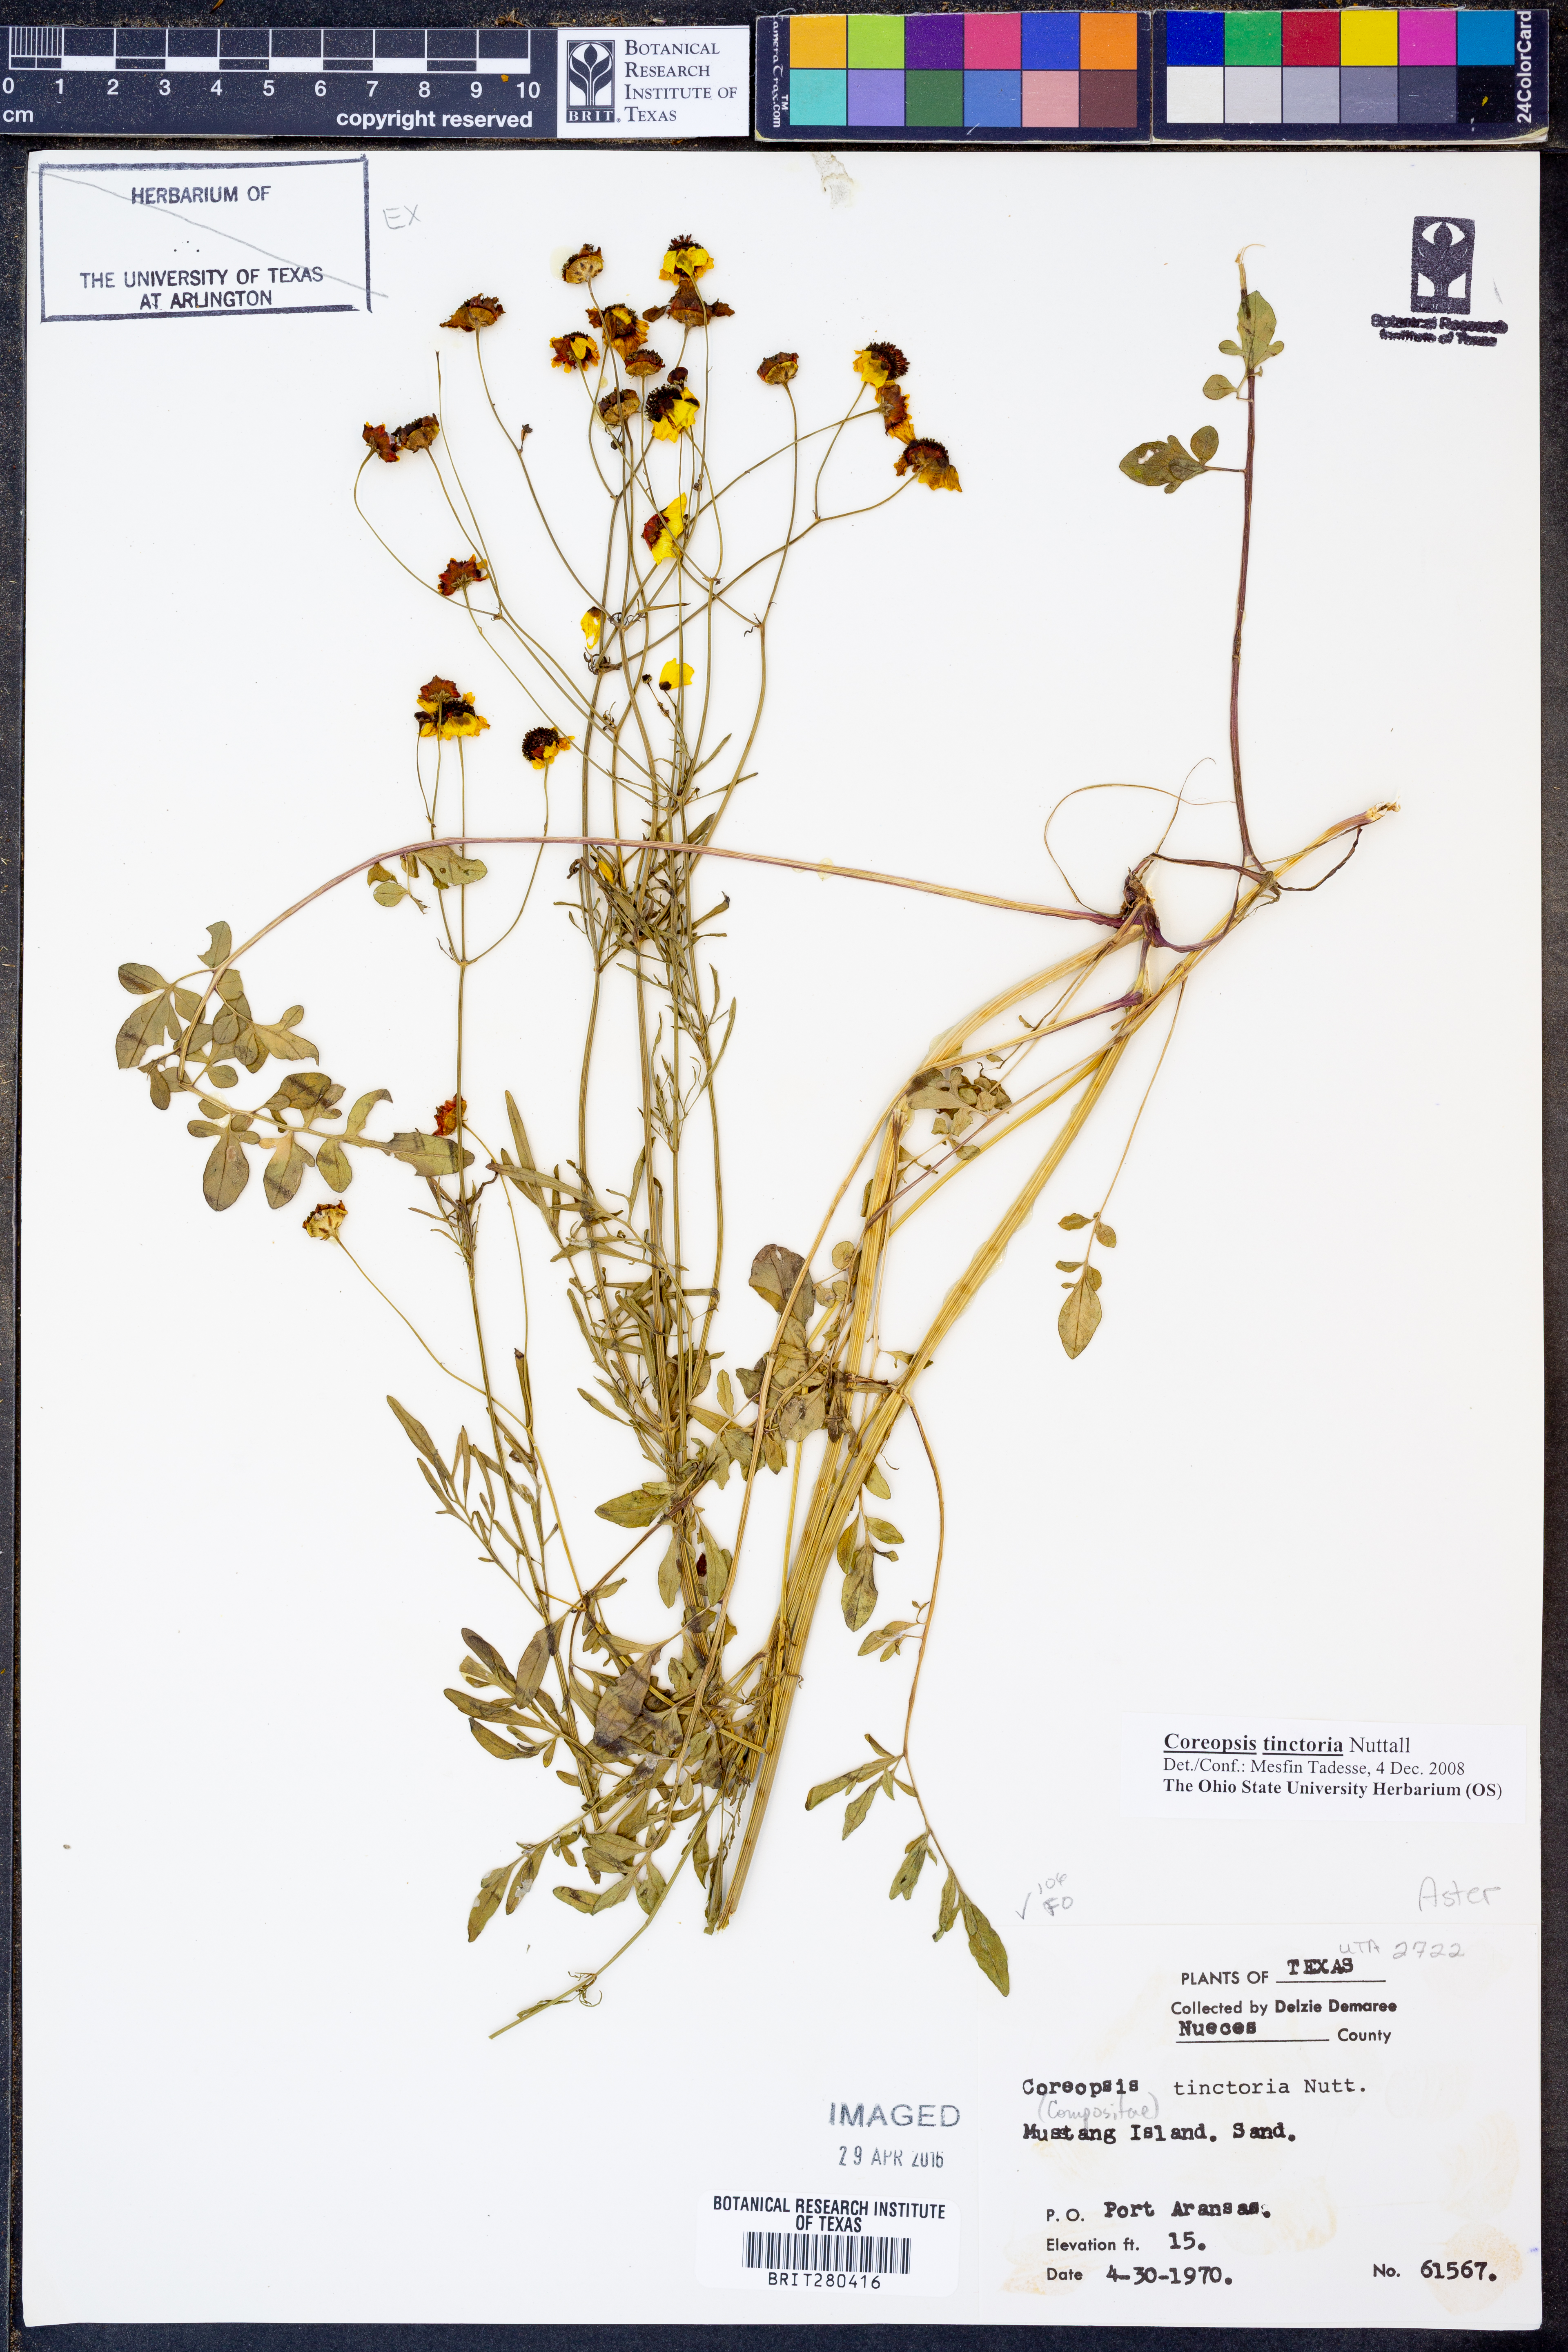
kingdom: Plantae
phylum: Tracheophyta
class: Magnoliopsida
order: Asterales
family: Asteraceae
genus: Coreopsis
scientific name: Coreopsis tinctoria
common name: Garden tickseed
